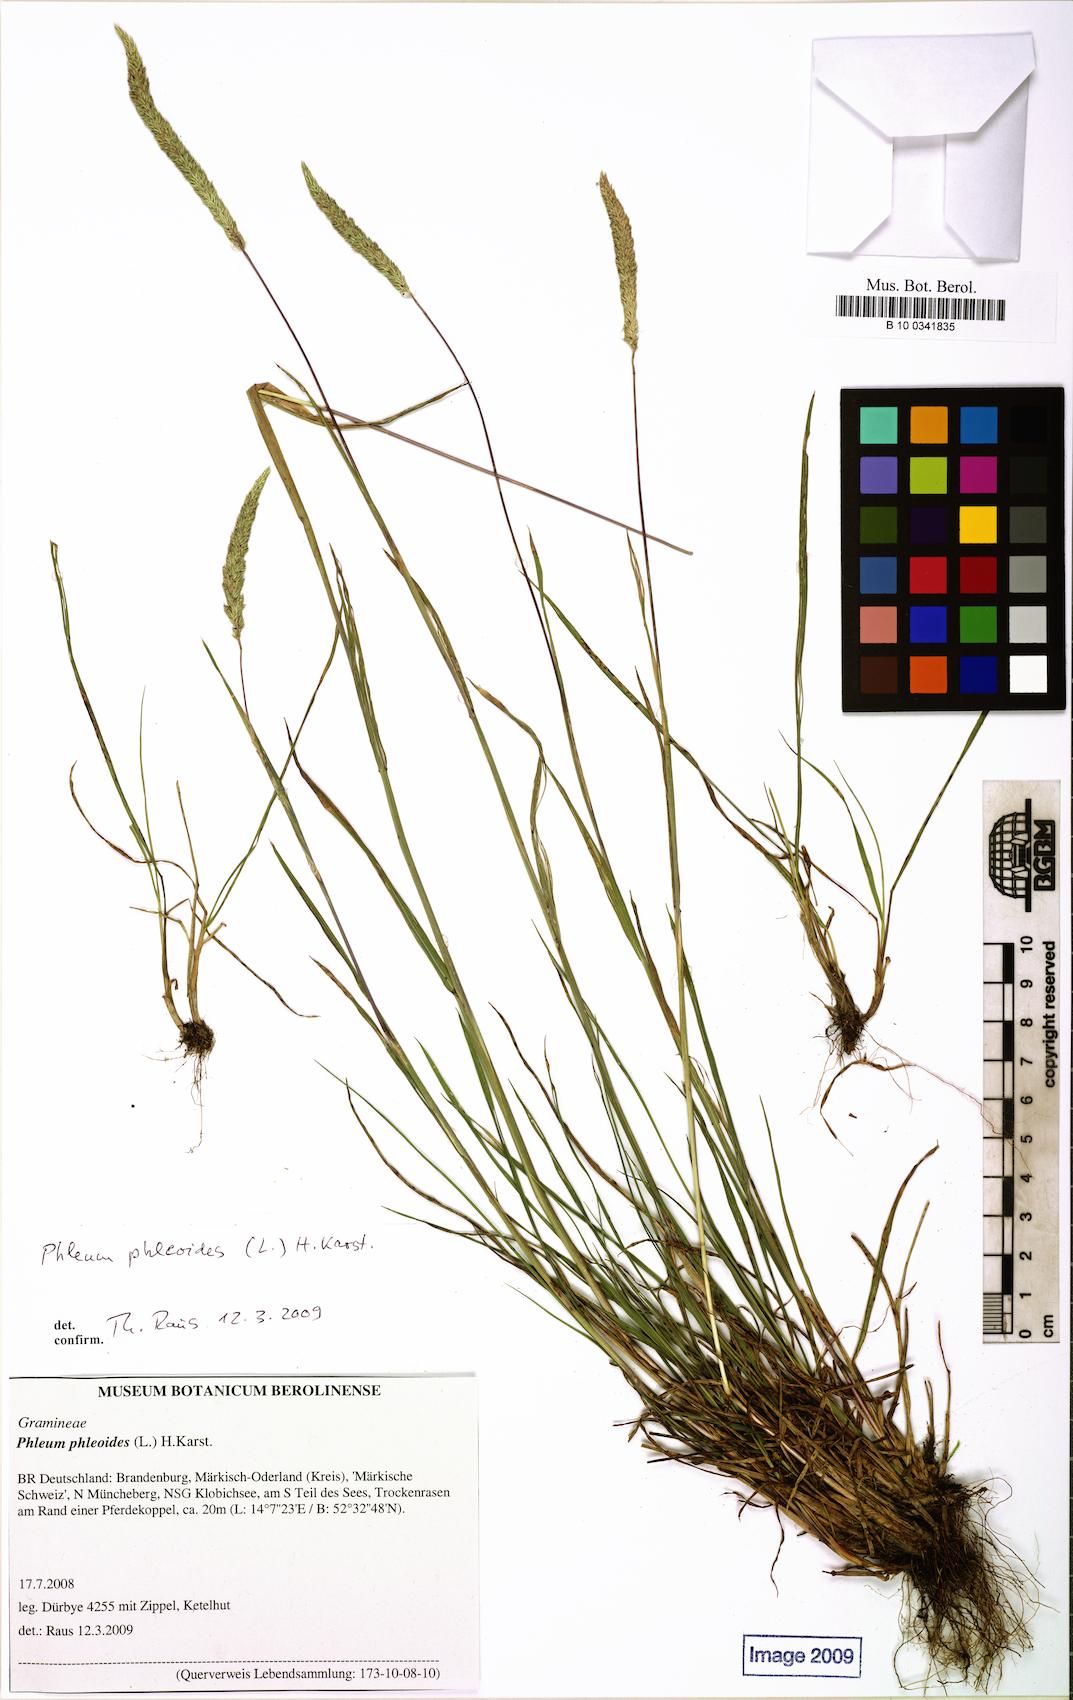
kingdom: Plantae
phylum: Tracheophyta
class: Liliopsida
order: Poales
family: Poaceae
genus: Phleum
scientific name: Phleum phleoides
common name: Purple-stem cat's-tail
